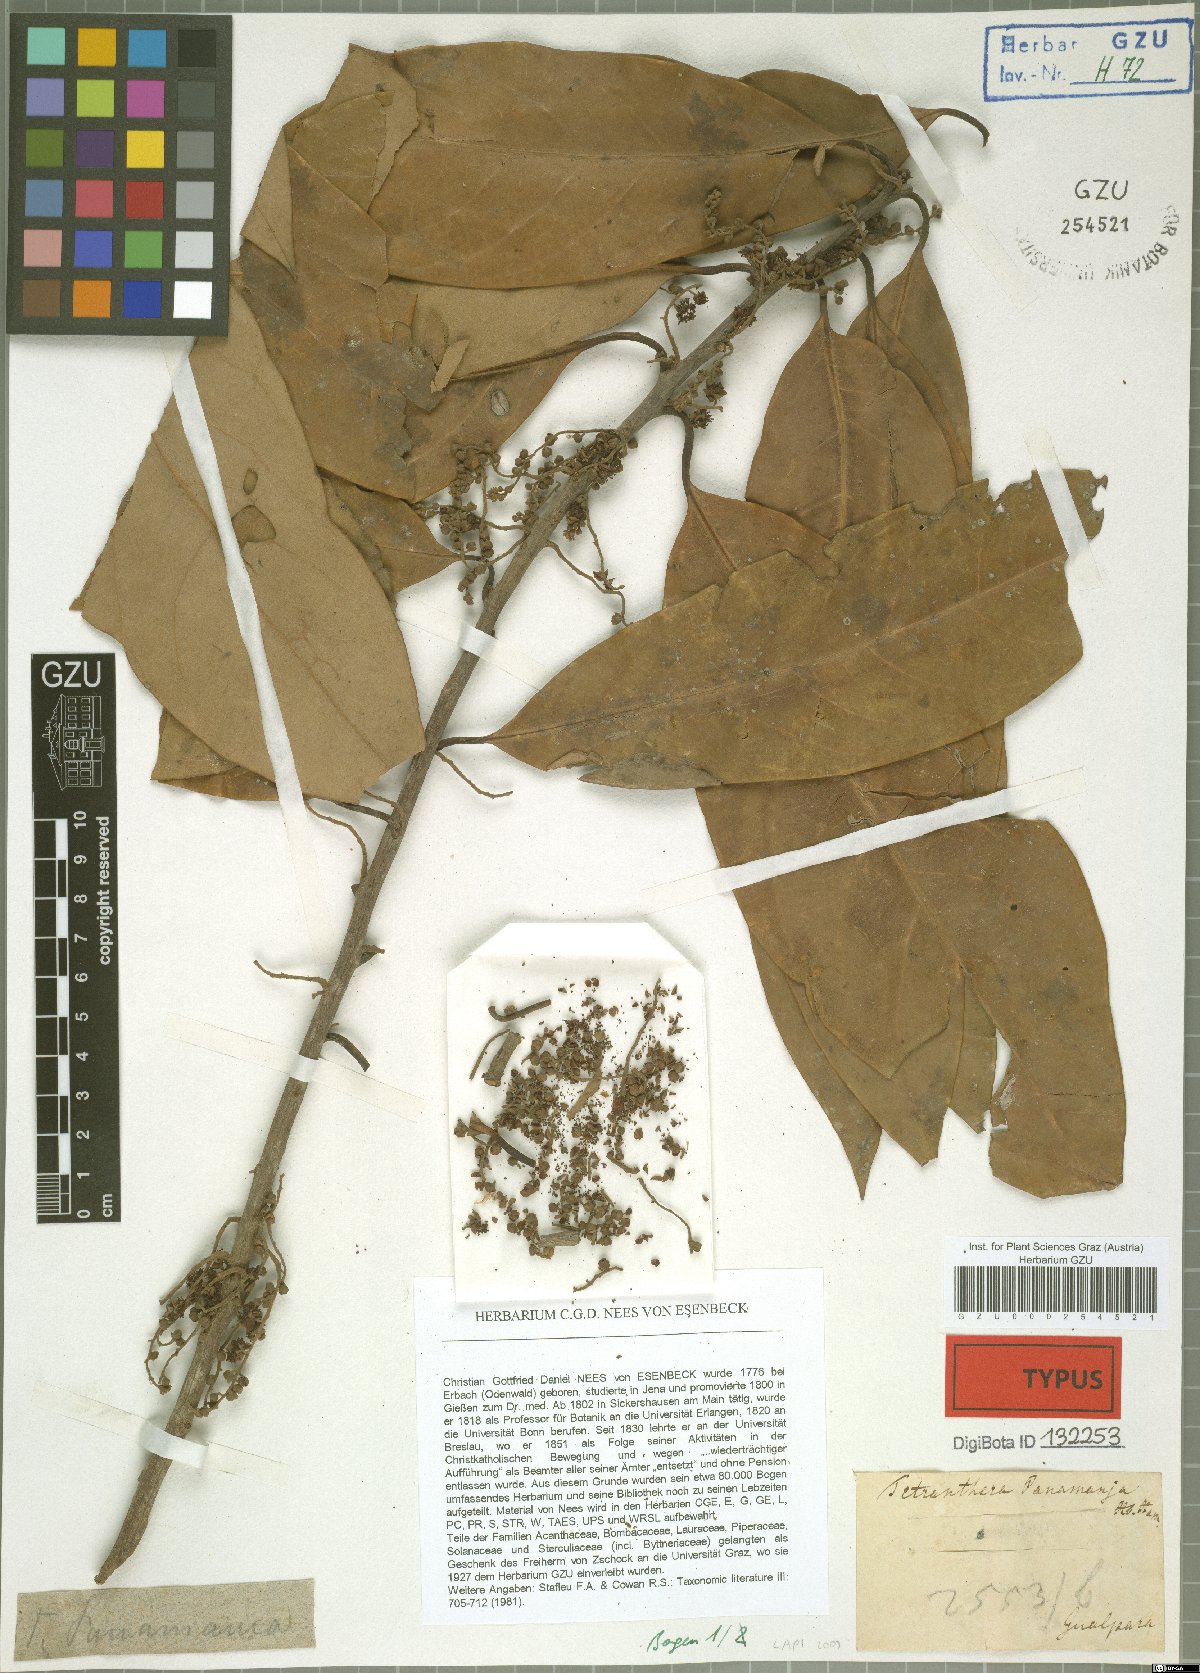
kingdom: Plantae
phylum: Tracheophyta
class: Magnoliopsida
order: Laurales
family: Lauraceae
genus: Litsea
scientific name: Litsea panamanja
